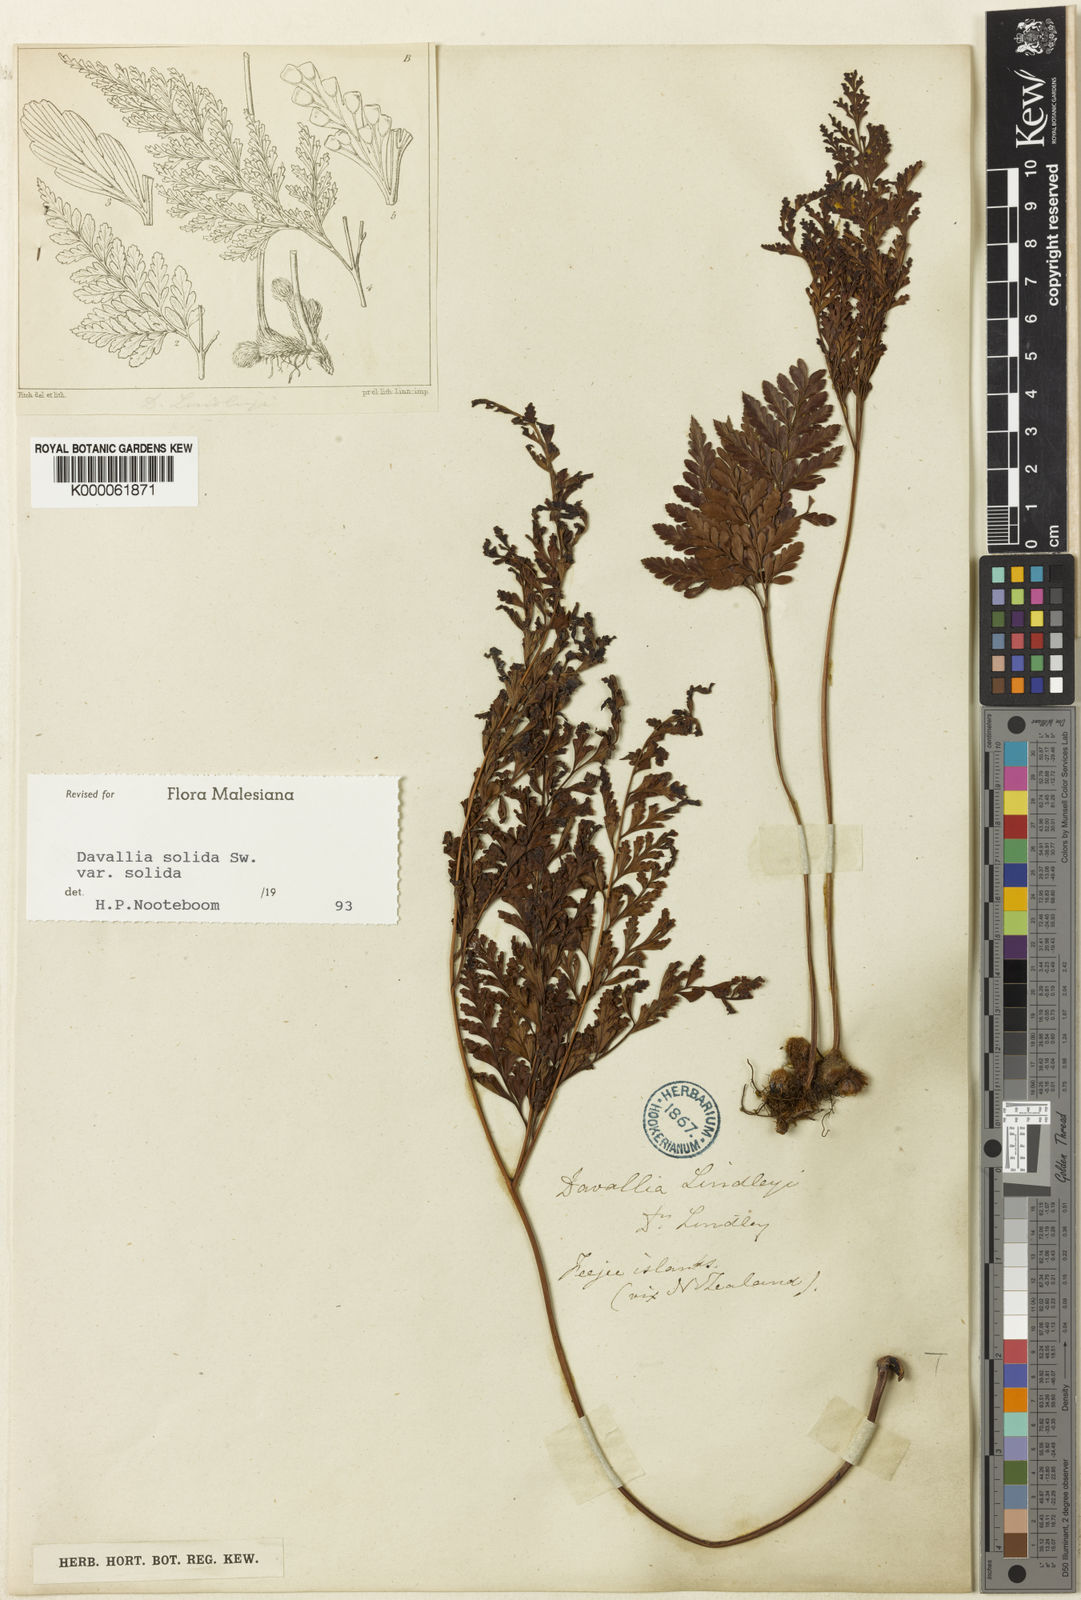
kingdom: Plantae
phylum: Tracheophyta
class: Polypodiopsida
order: Polypodiales
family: Davalliaceae
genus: Davallia
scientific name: Davallia solida
